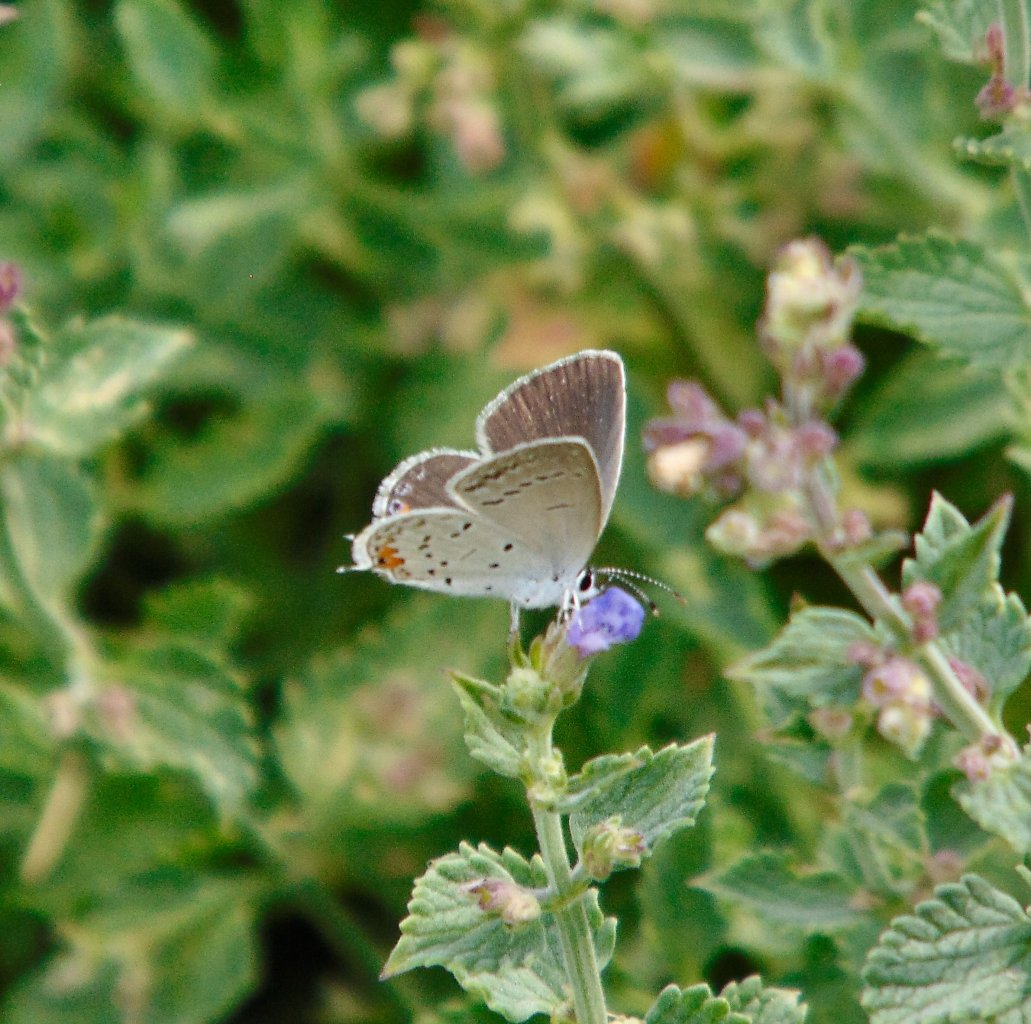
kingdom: Animalia
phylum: Arthropoda
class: Insecta
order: Lepidoptera
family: Lycaenidae
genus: Elkalyce
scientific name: Elkalyce comyntas
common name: Eastern Tailed-Blue
